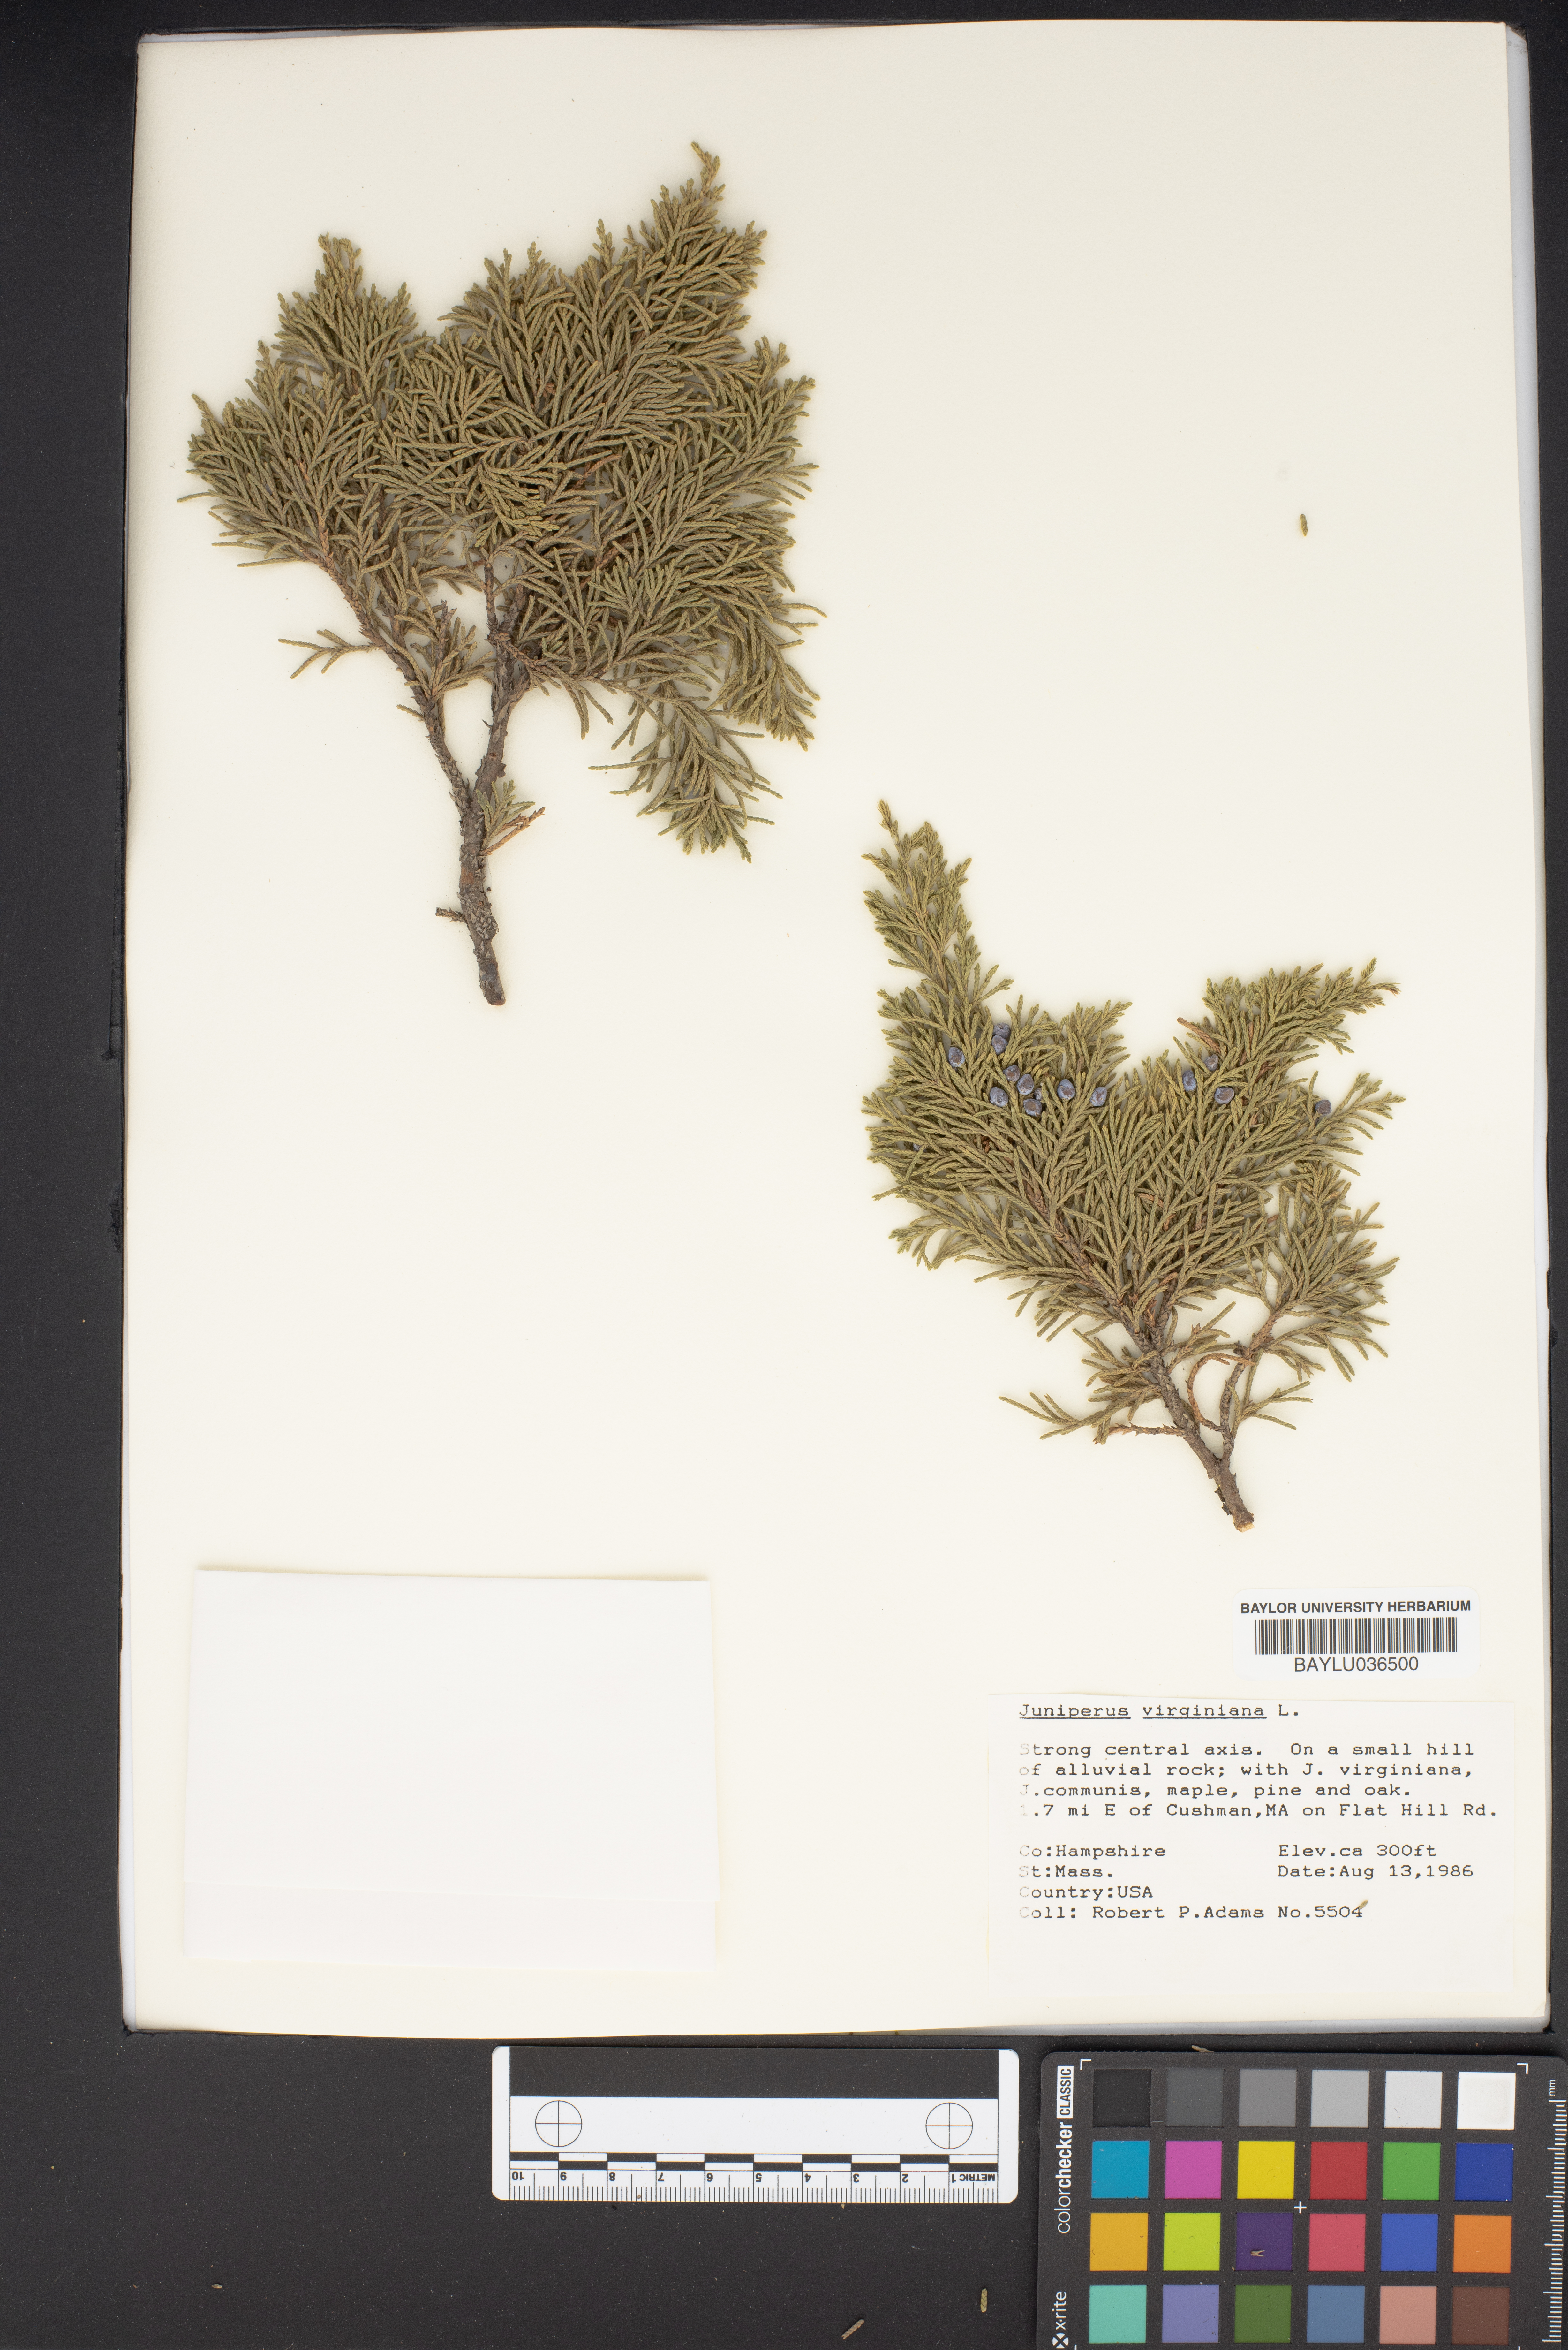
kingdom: Plantae
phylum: Tracheophyta
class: Pinopsida
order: Pinales
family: Cupressaceae
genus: Juniperus
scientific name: Juniperus virginiana
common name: Red juniper
